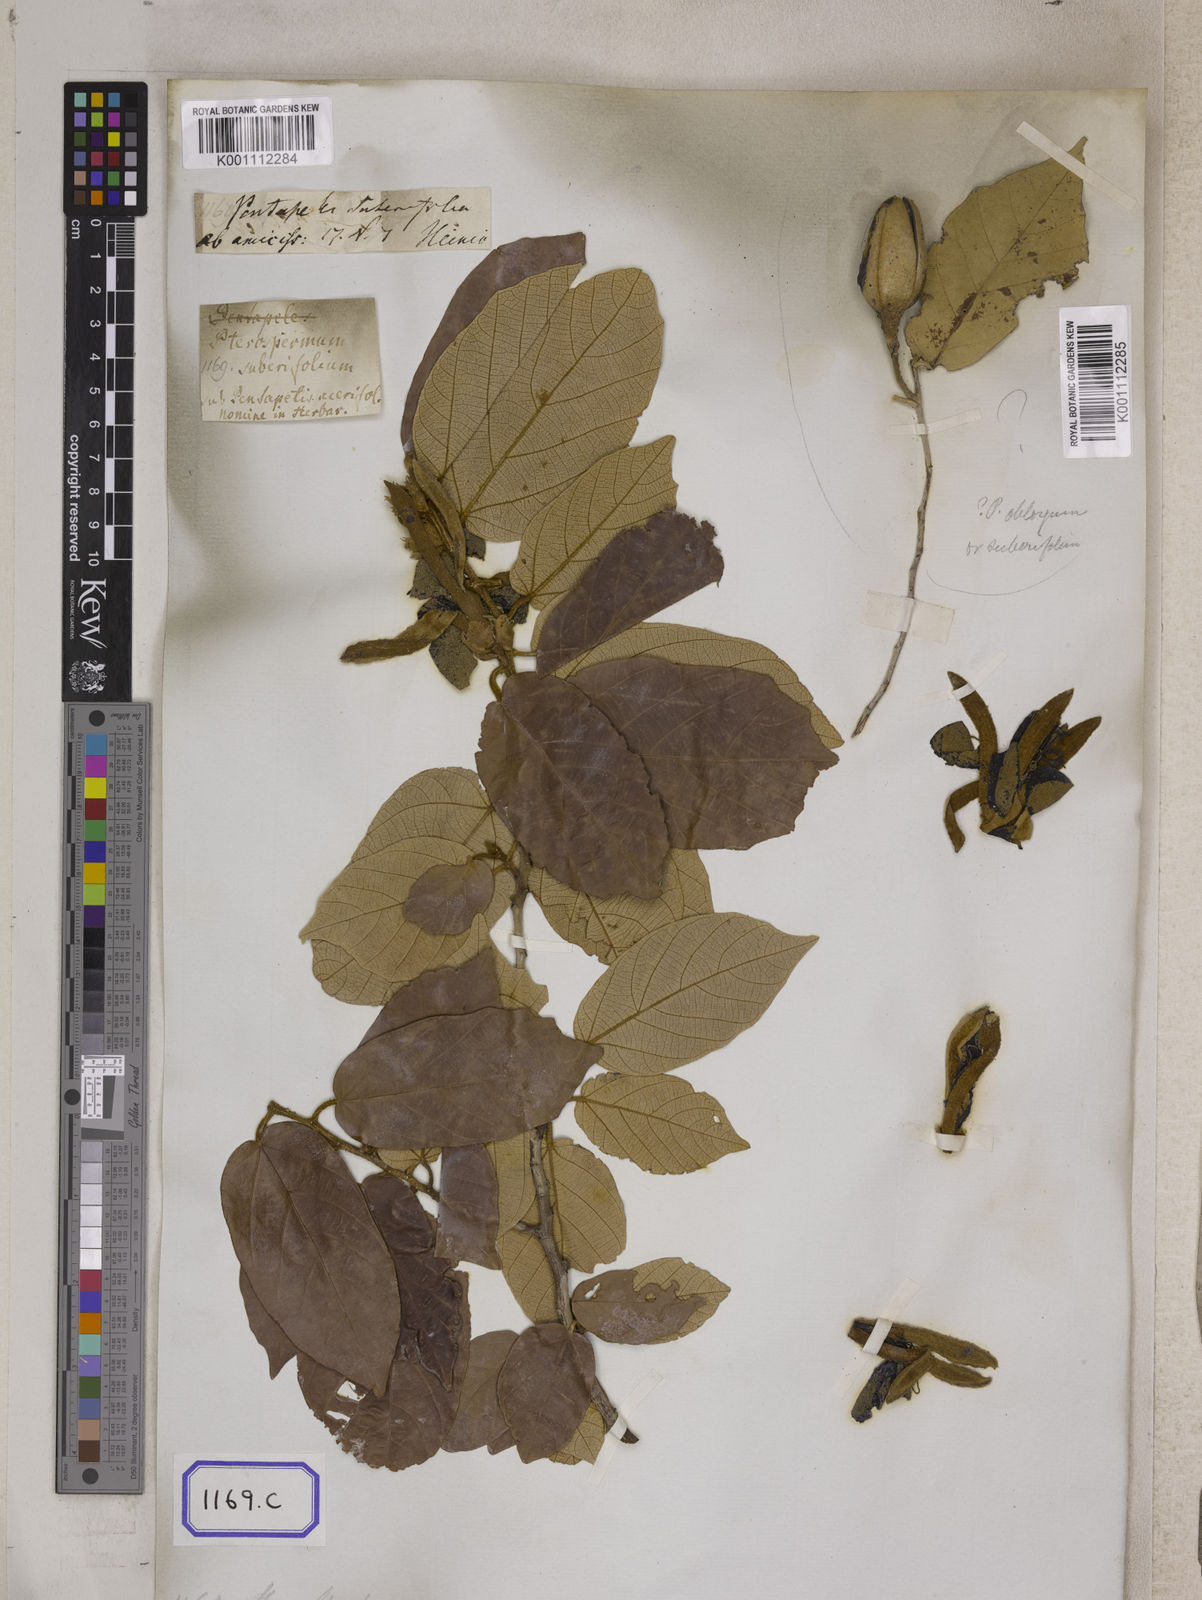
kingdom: Plantae
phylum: Tracheophyta
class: Magnoliopsida
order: Malvales
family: Malvaceae
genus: Pterospermum
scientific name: Pterospermum
